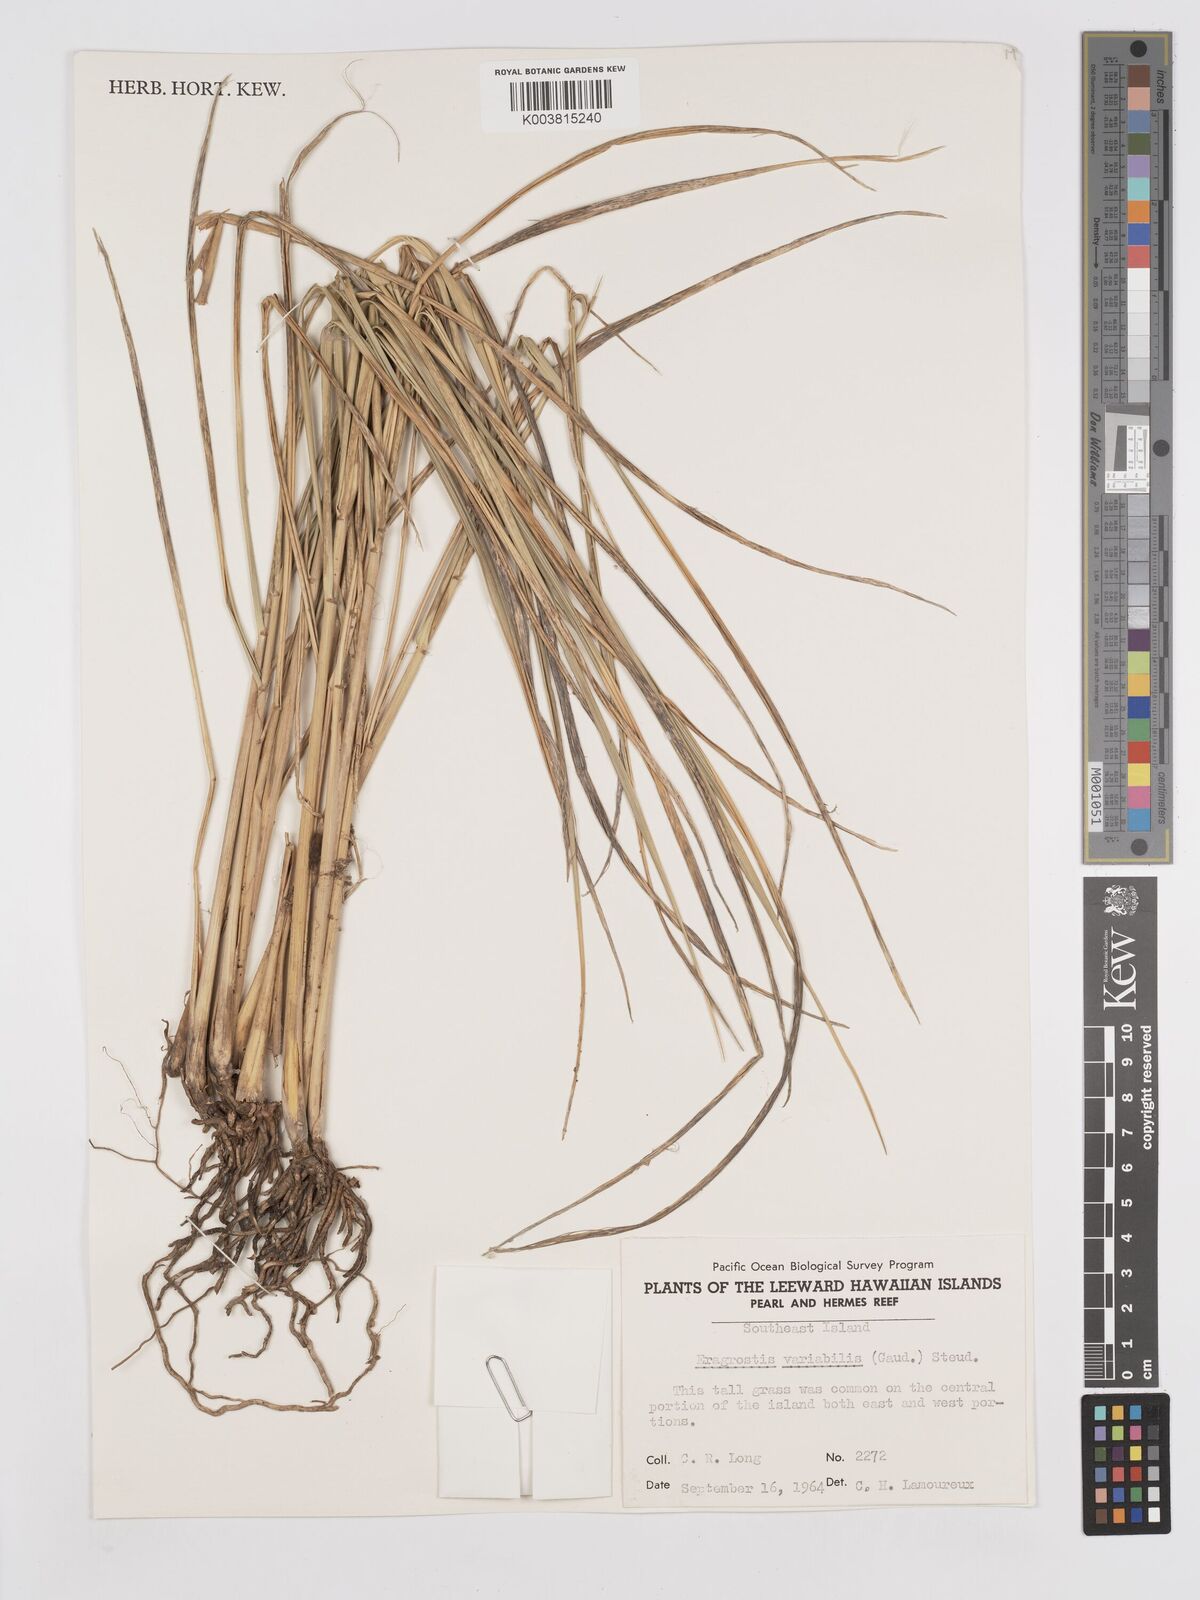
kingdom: Plantae
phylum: Tracheophyta
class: Liliopsida
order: Poales
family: Poaceae
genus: Eragrostis
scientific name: Eragrostis variabilis
